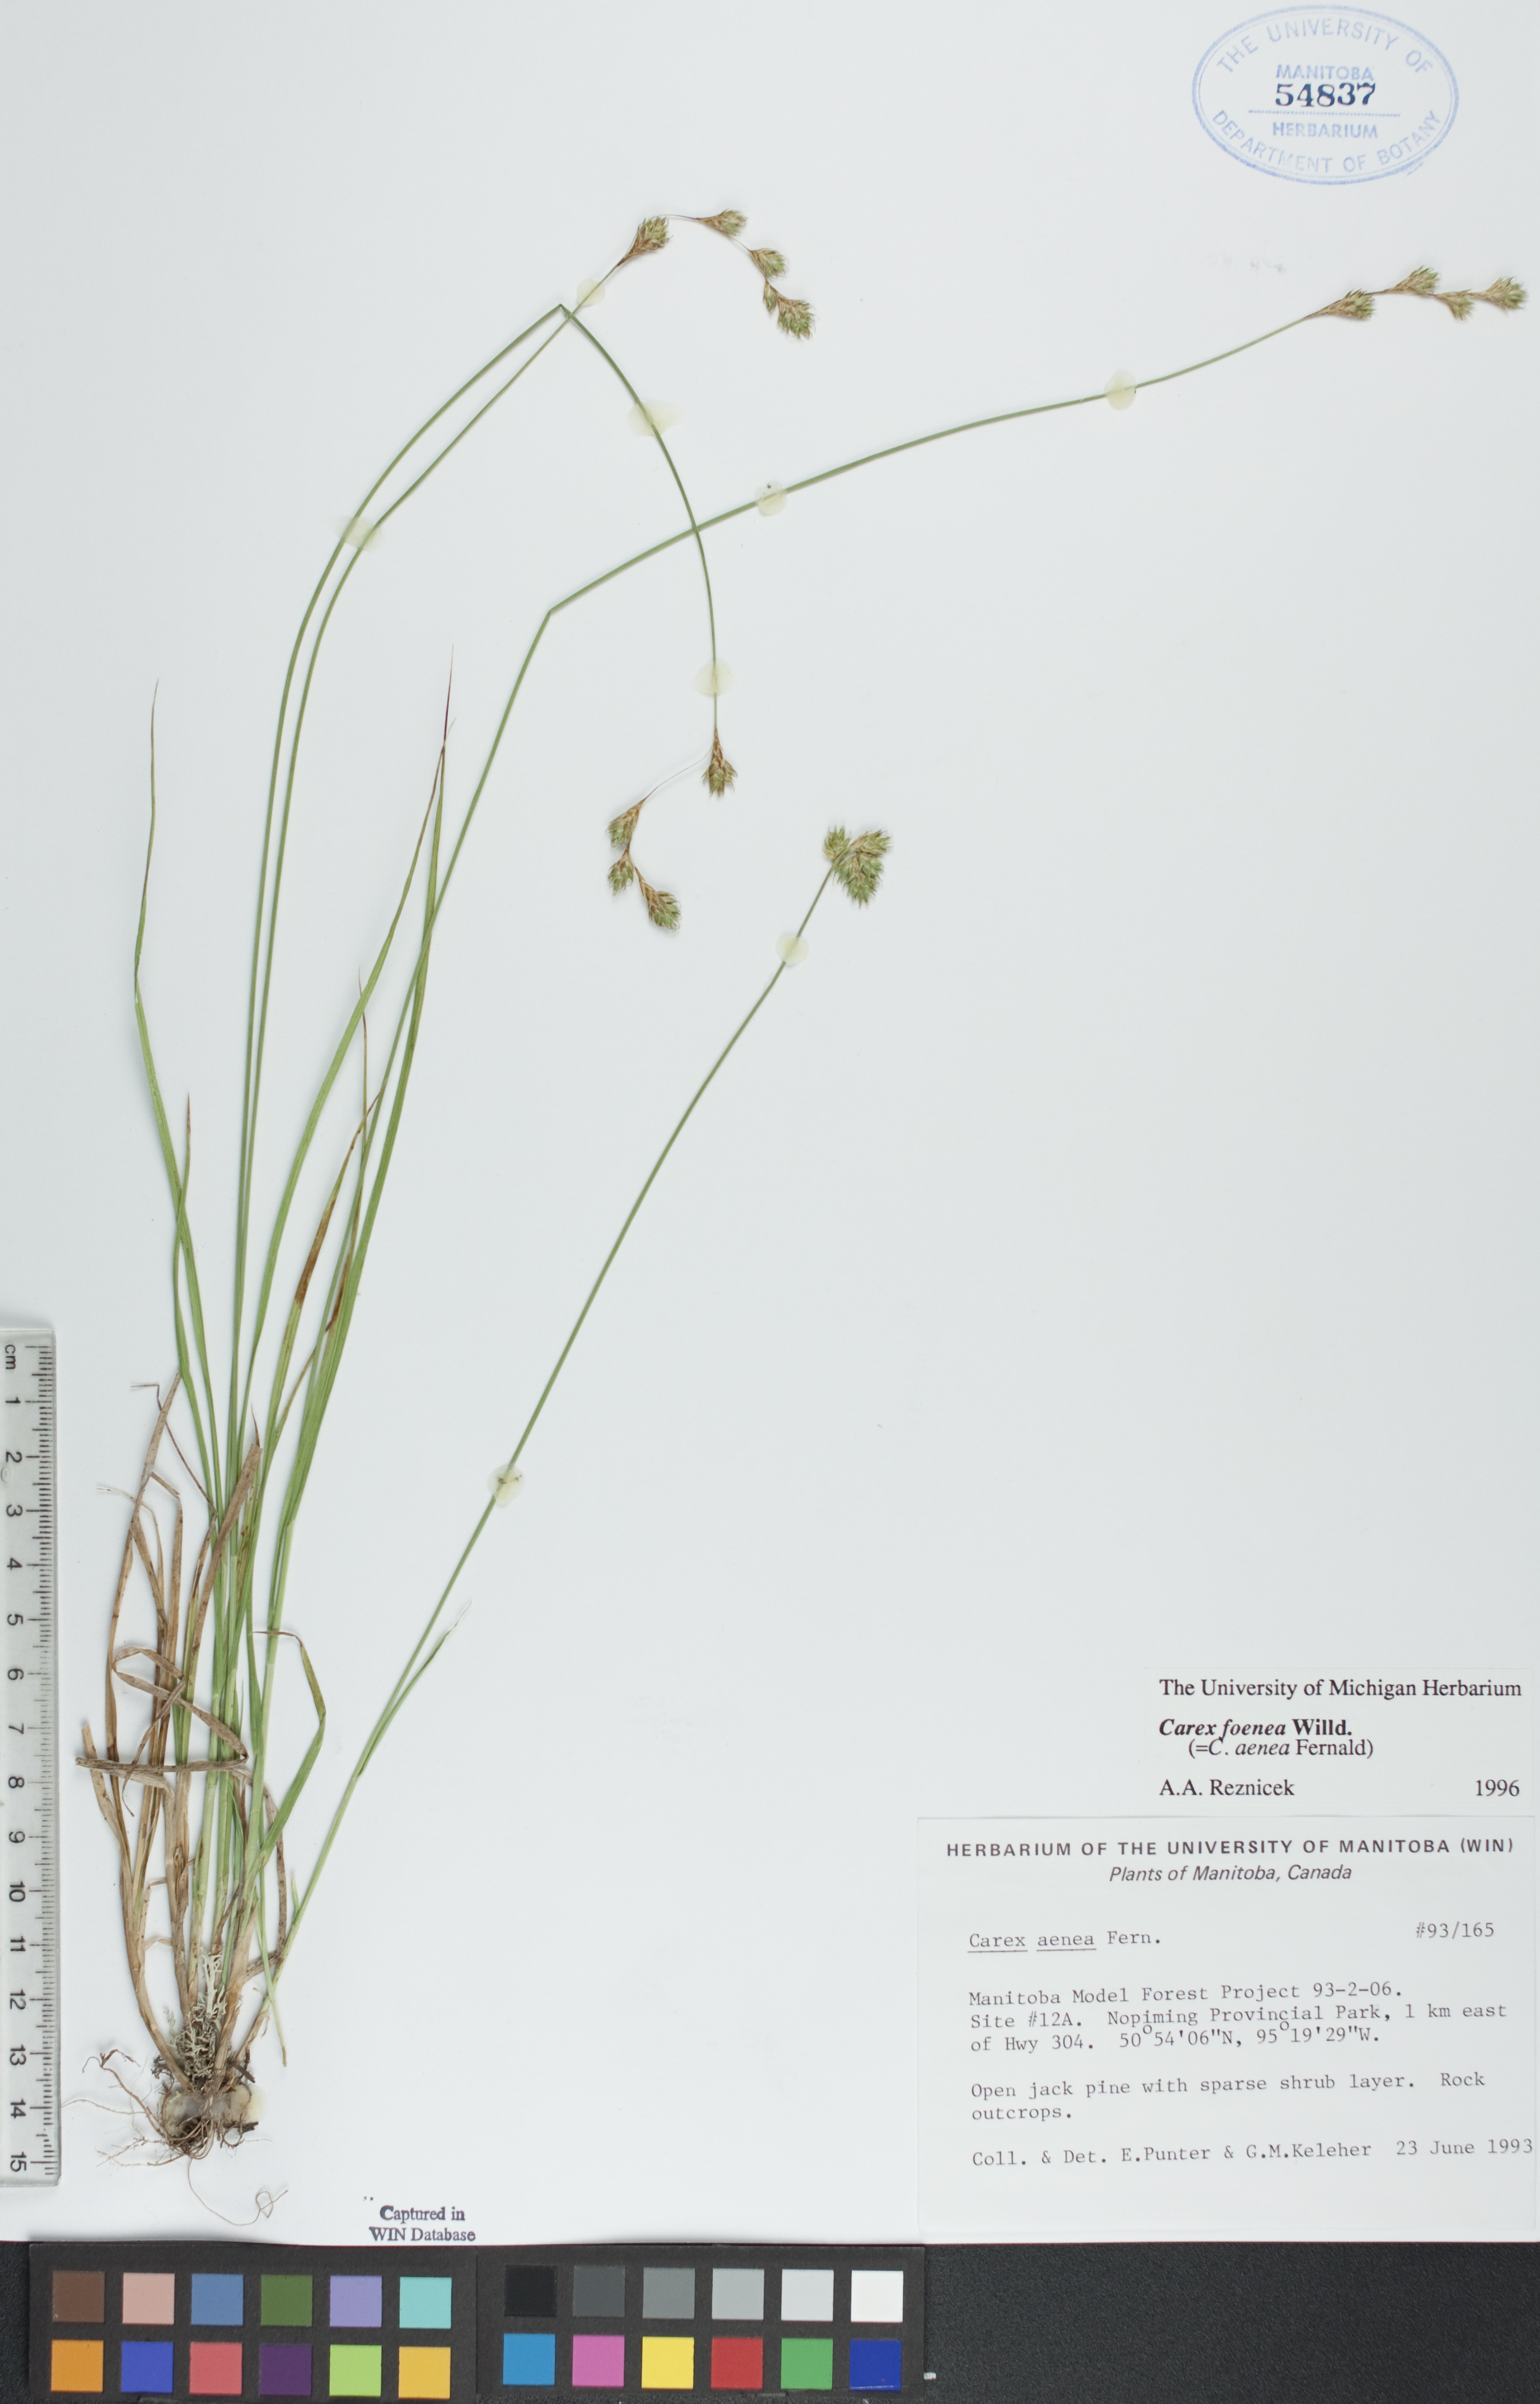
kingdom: Plantae
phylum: Tracheophyta
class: Liliopsida
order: Poales
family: Cyperaceae
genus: Carex
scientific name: Carex foenea
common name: Bronze sedge
